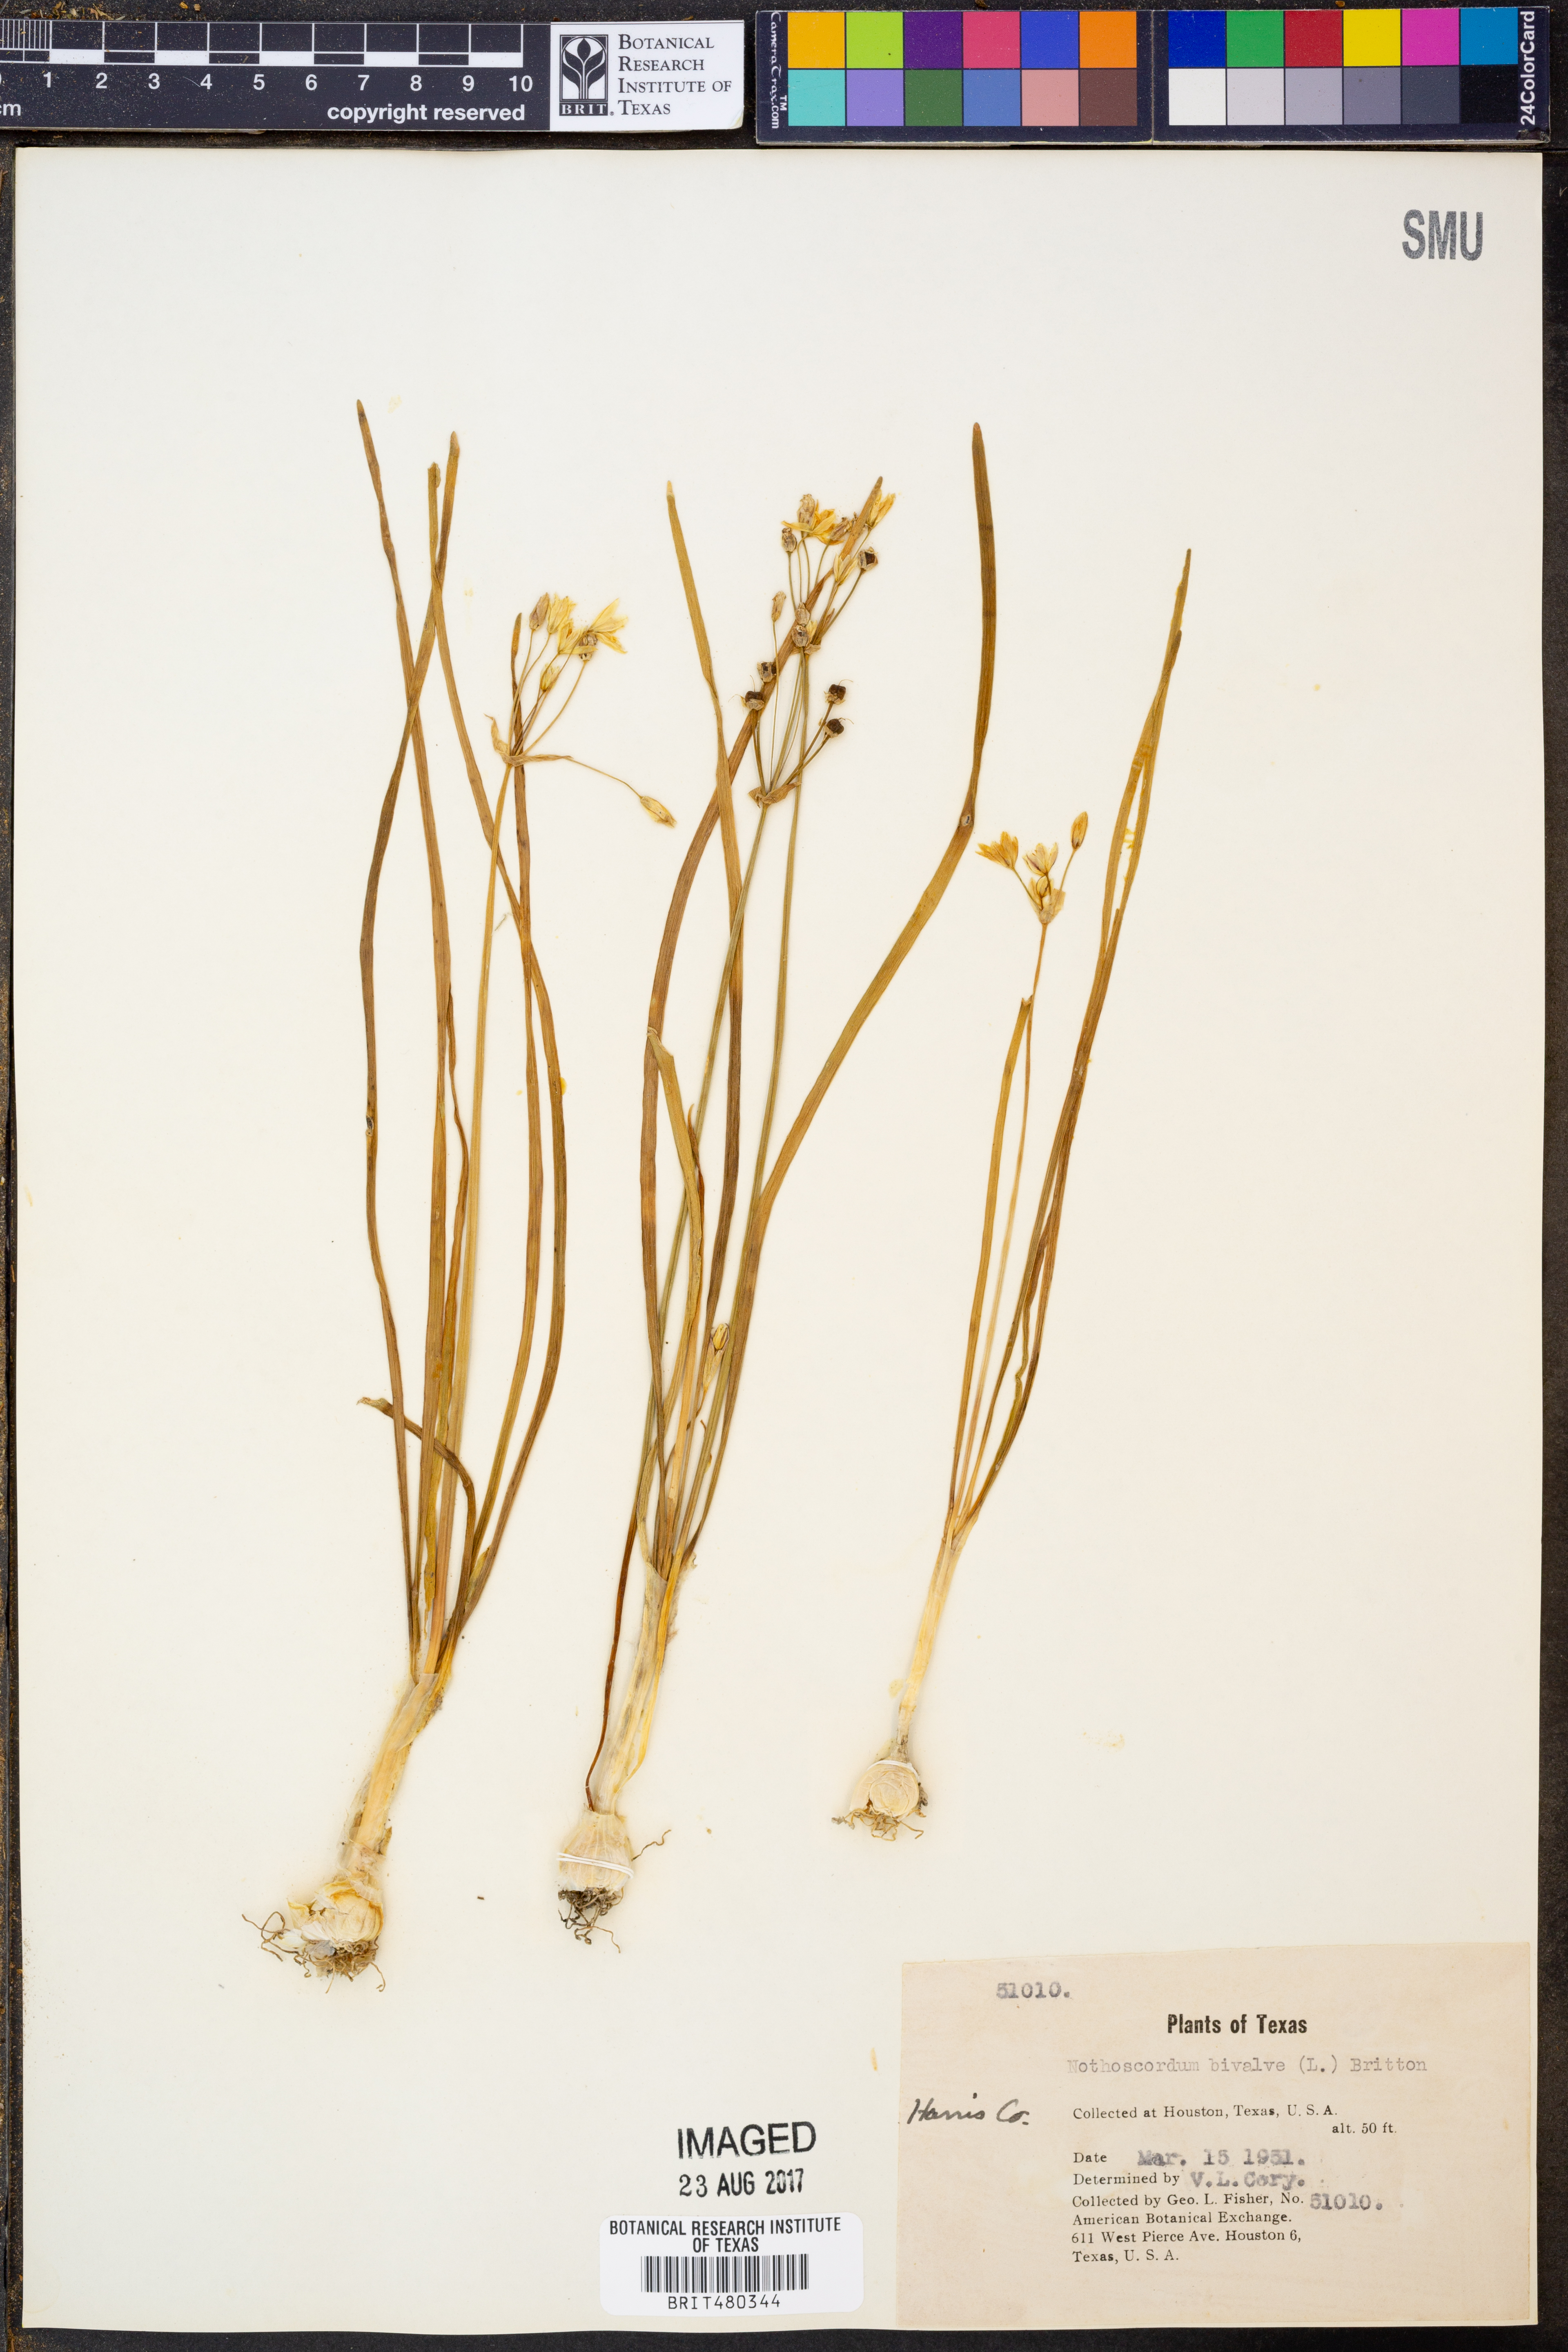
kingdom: Plantae
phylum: Tracheophyta
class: Liliopsida
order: Asparagales
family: Amaryllidaceae
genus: Nothoscordum
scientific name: Nothoscordum bivalve
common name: Crow-poison
